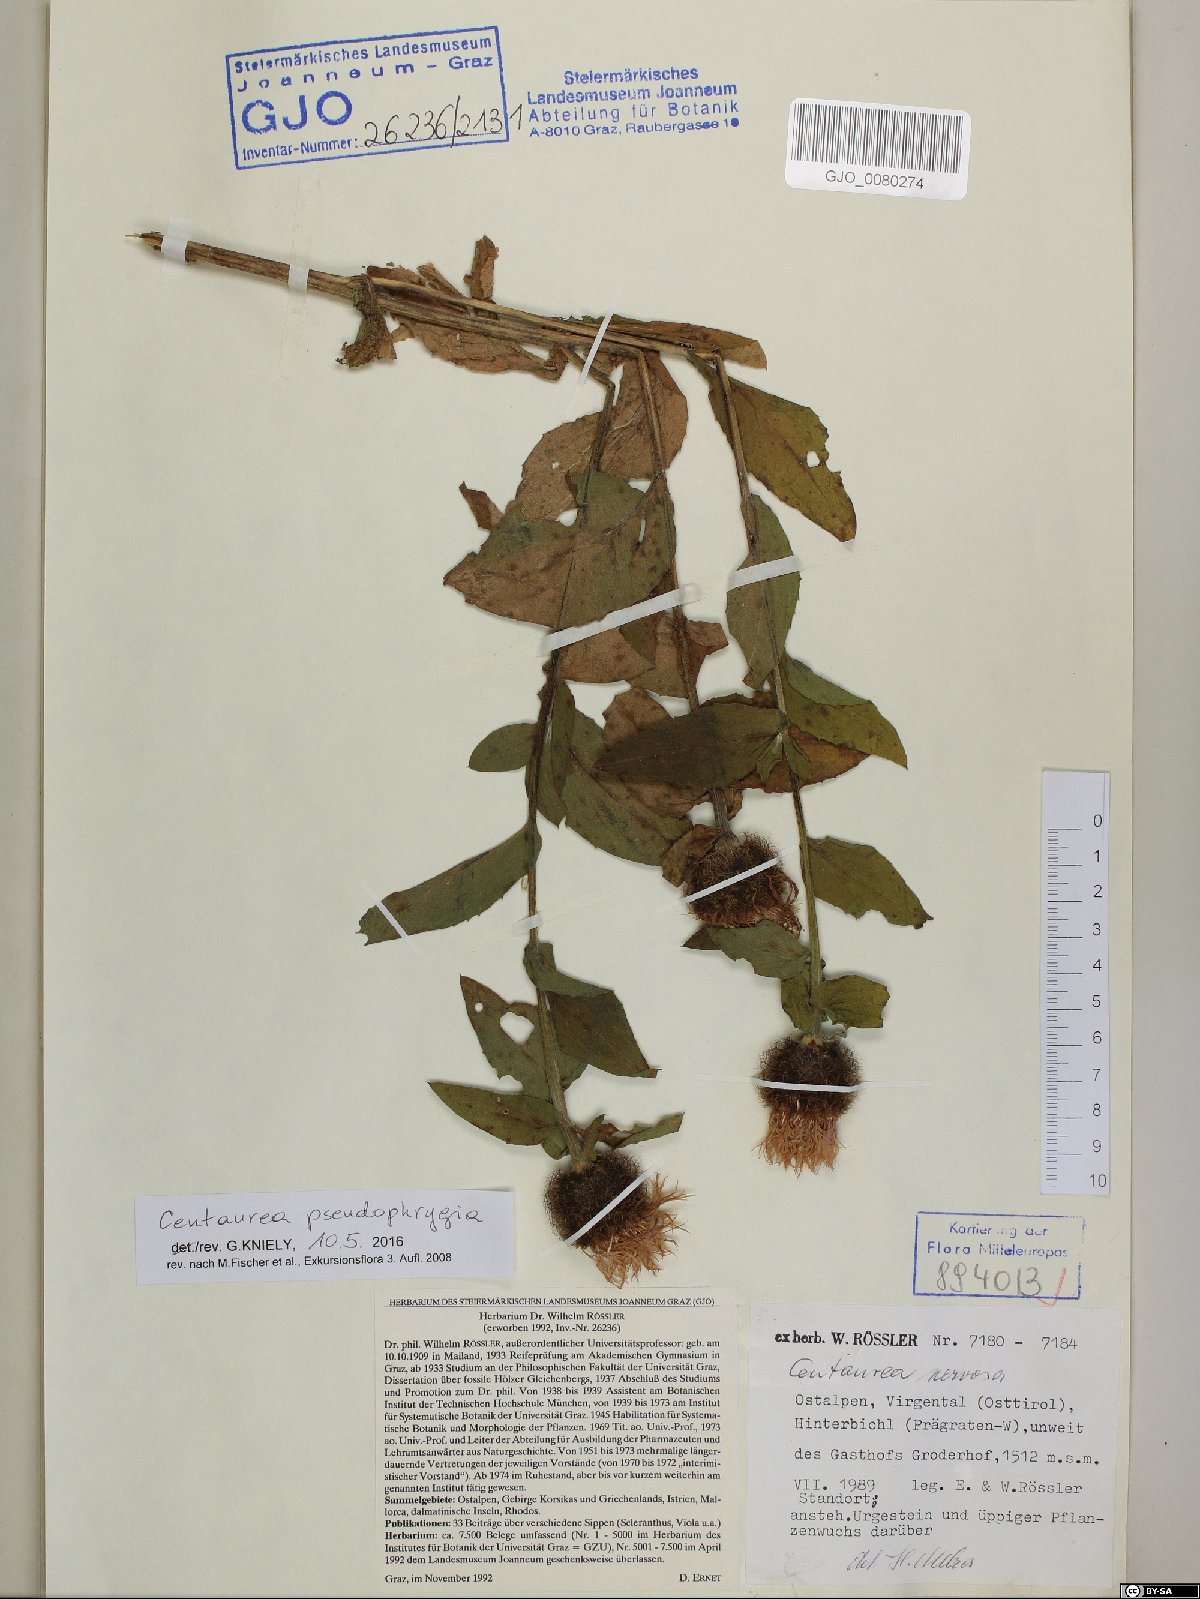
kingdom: Plantae
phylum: Tracheophyta
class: Magnoliopsida
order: Asterales
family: Asteraceae
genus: Centaurea
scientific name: Centaurea pseudophrygia
